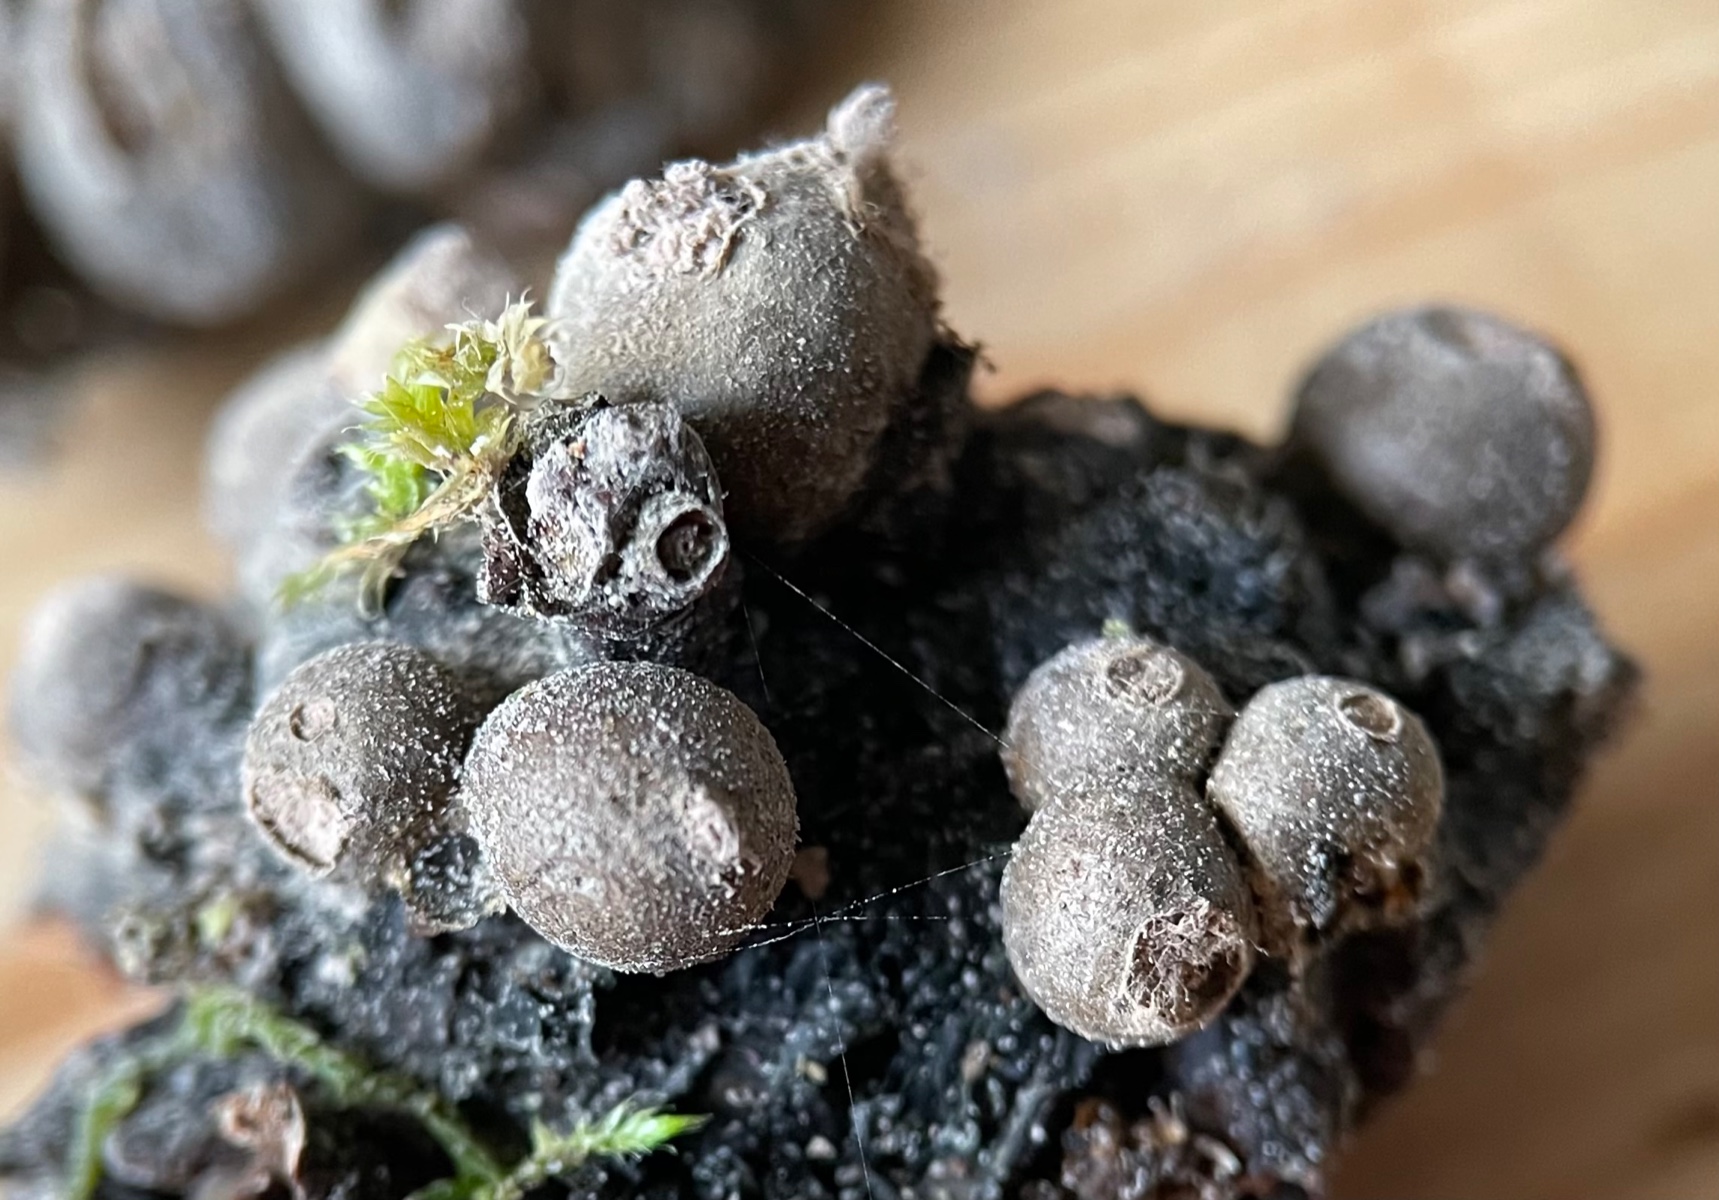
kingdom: Protozoa
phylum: Mycetozoa
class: Myxomycetes
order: Cribrariales
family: Tubiferaceae
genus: Lycogala
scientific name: Lycogala epidendrum
